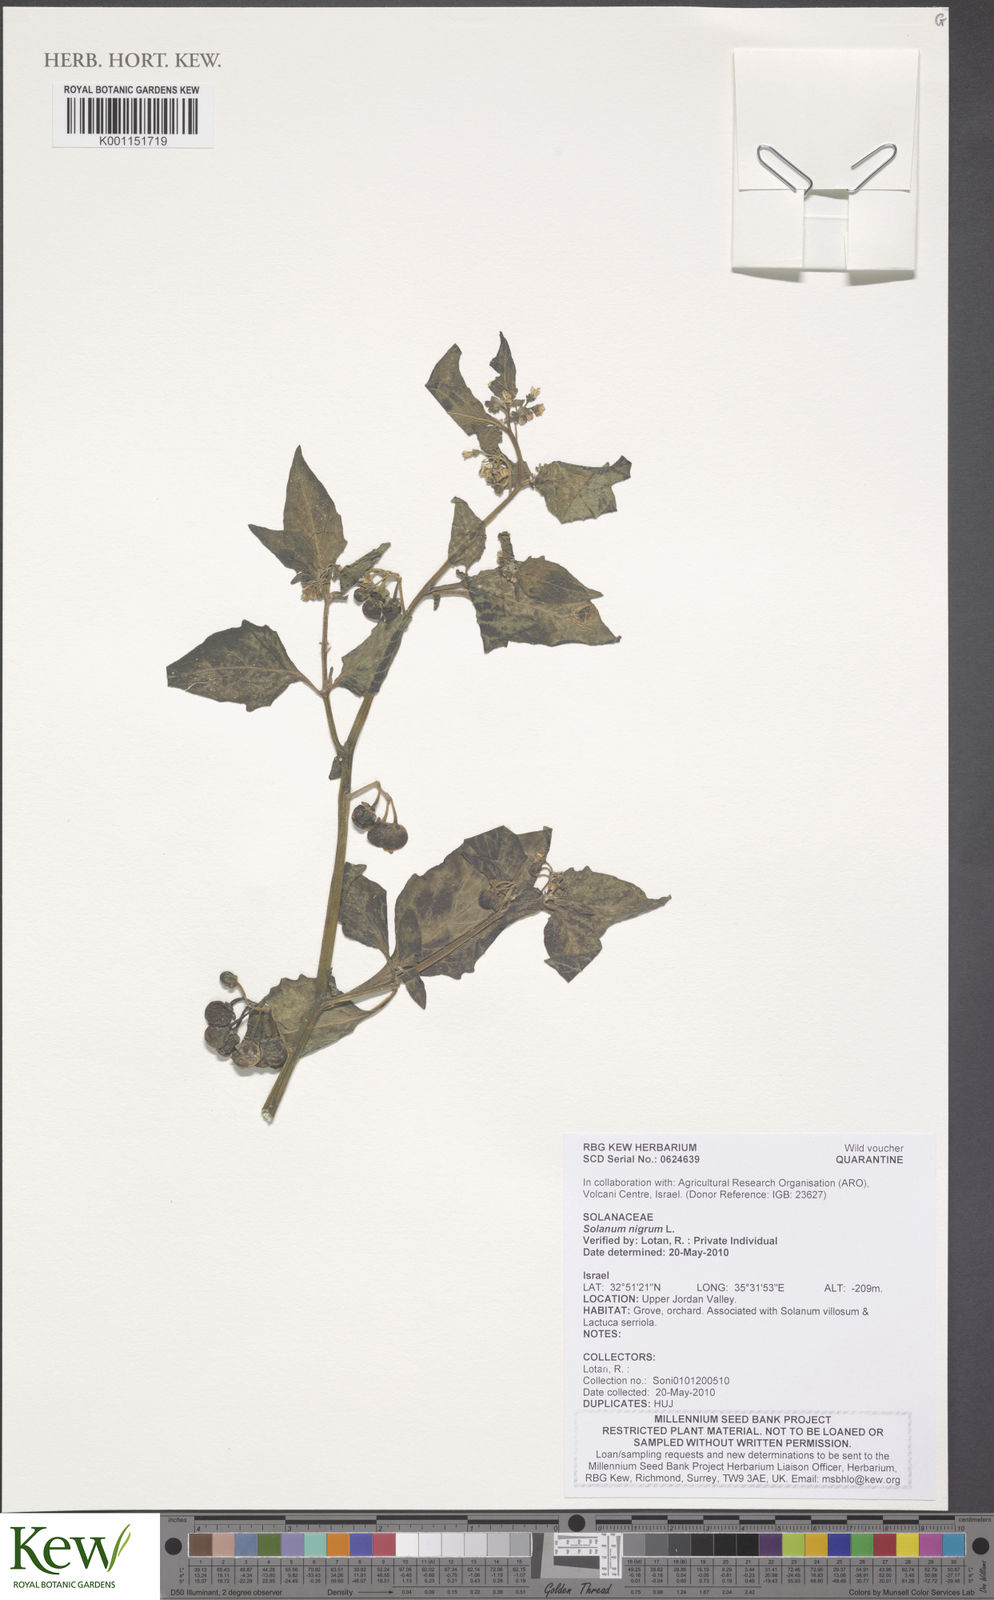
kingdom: Plantae
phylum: Tracheophyta
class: Magnoliopsida
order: Solanales
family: Solanaceae
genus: Solanum
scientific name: Solanum nigrum
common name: Black nightshade
